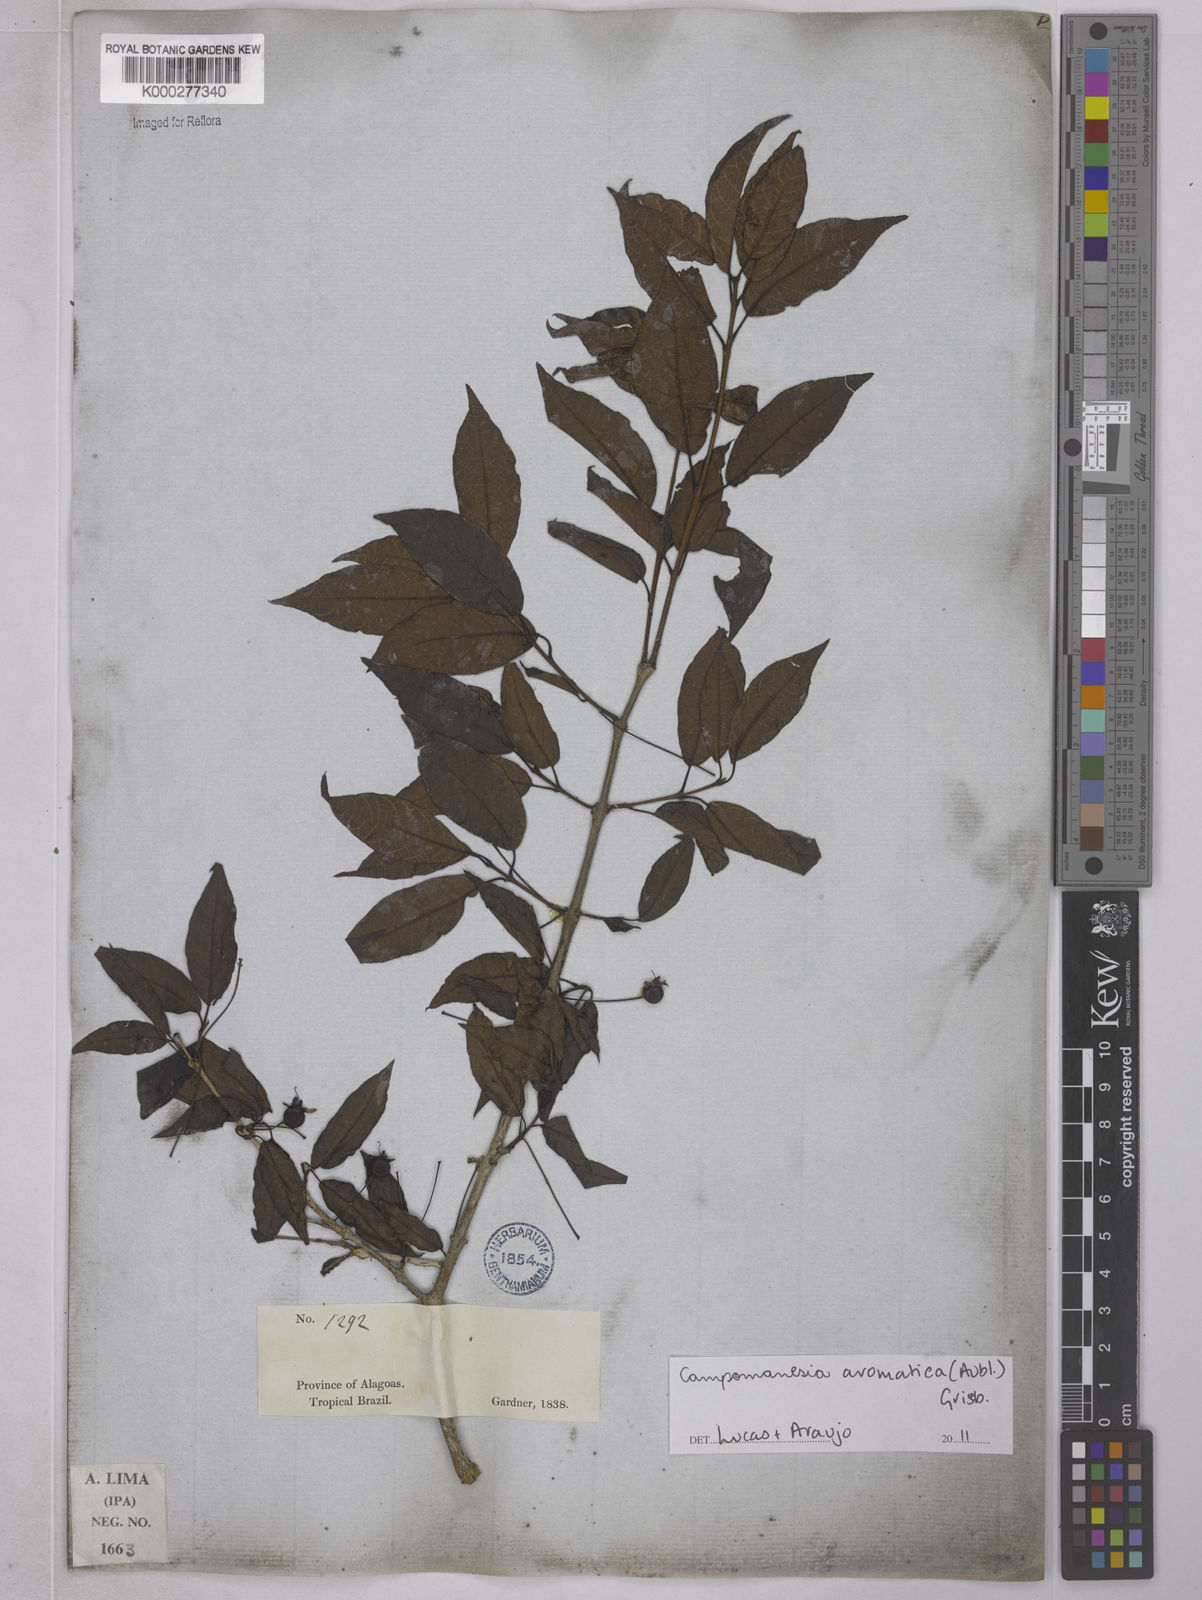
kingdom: Plantae
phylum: Tracheophyta
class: Magnoliopsida
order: Myrtales
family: Myrtaceae
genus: Campomanesia
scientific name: Campomanesia
